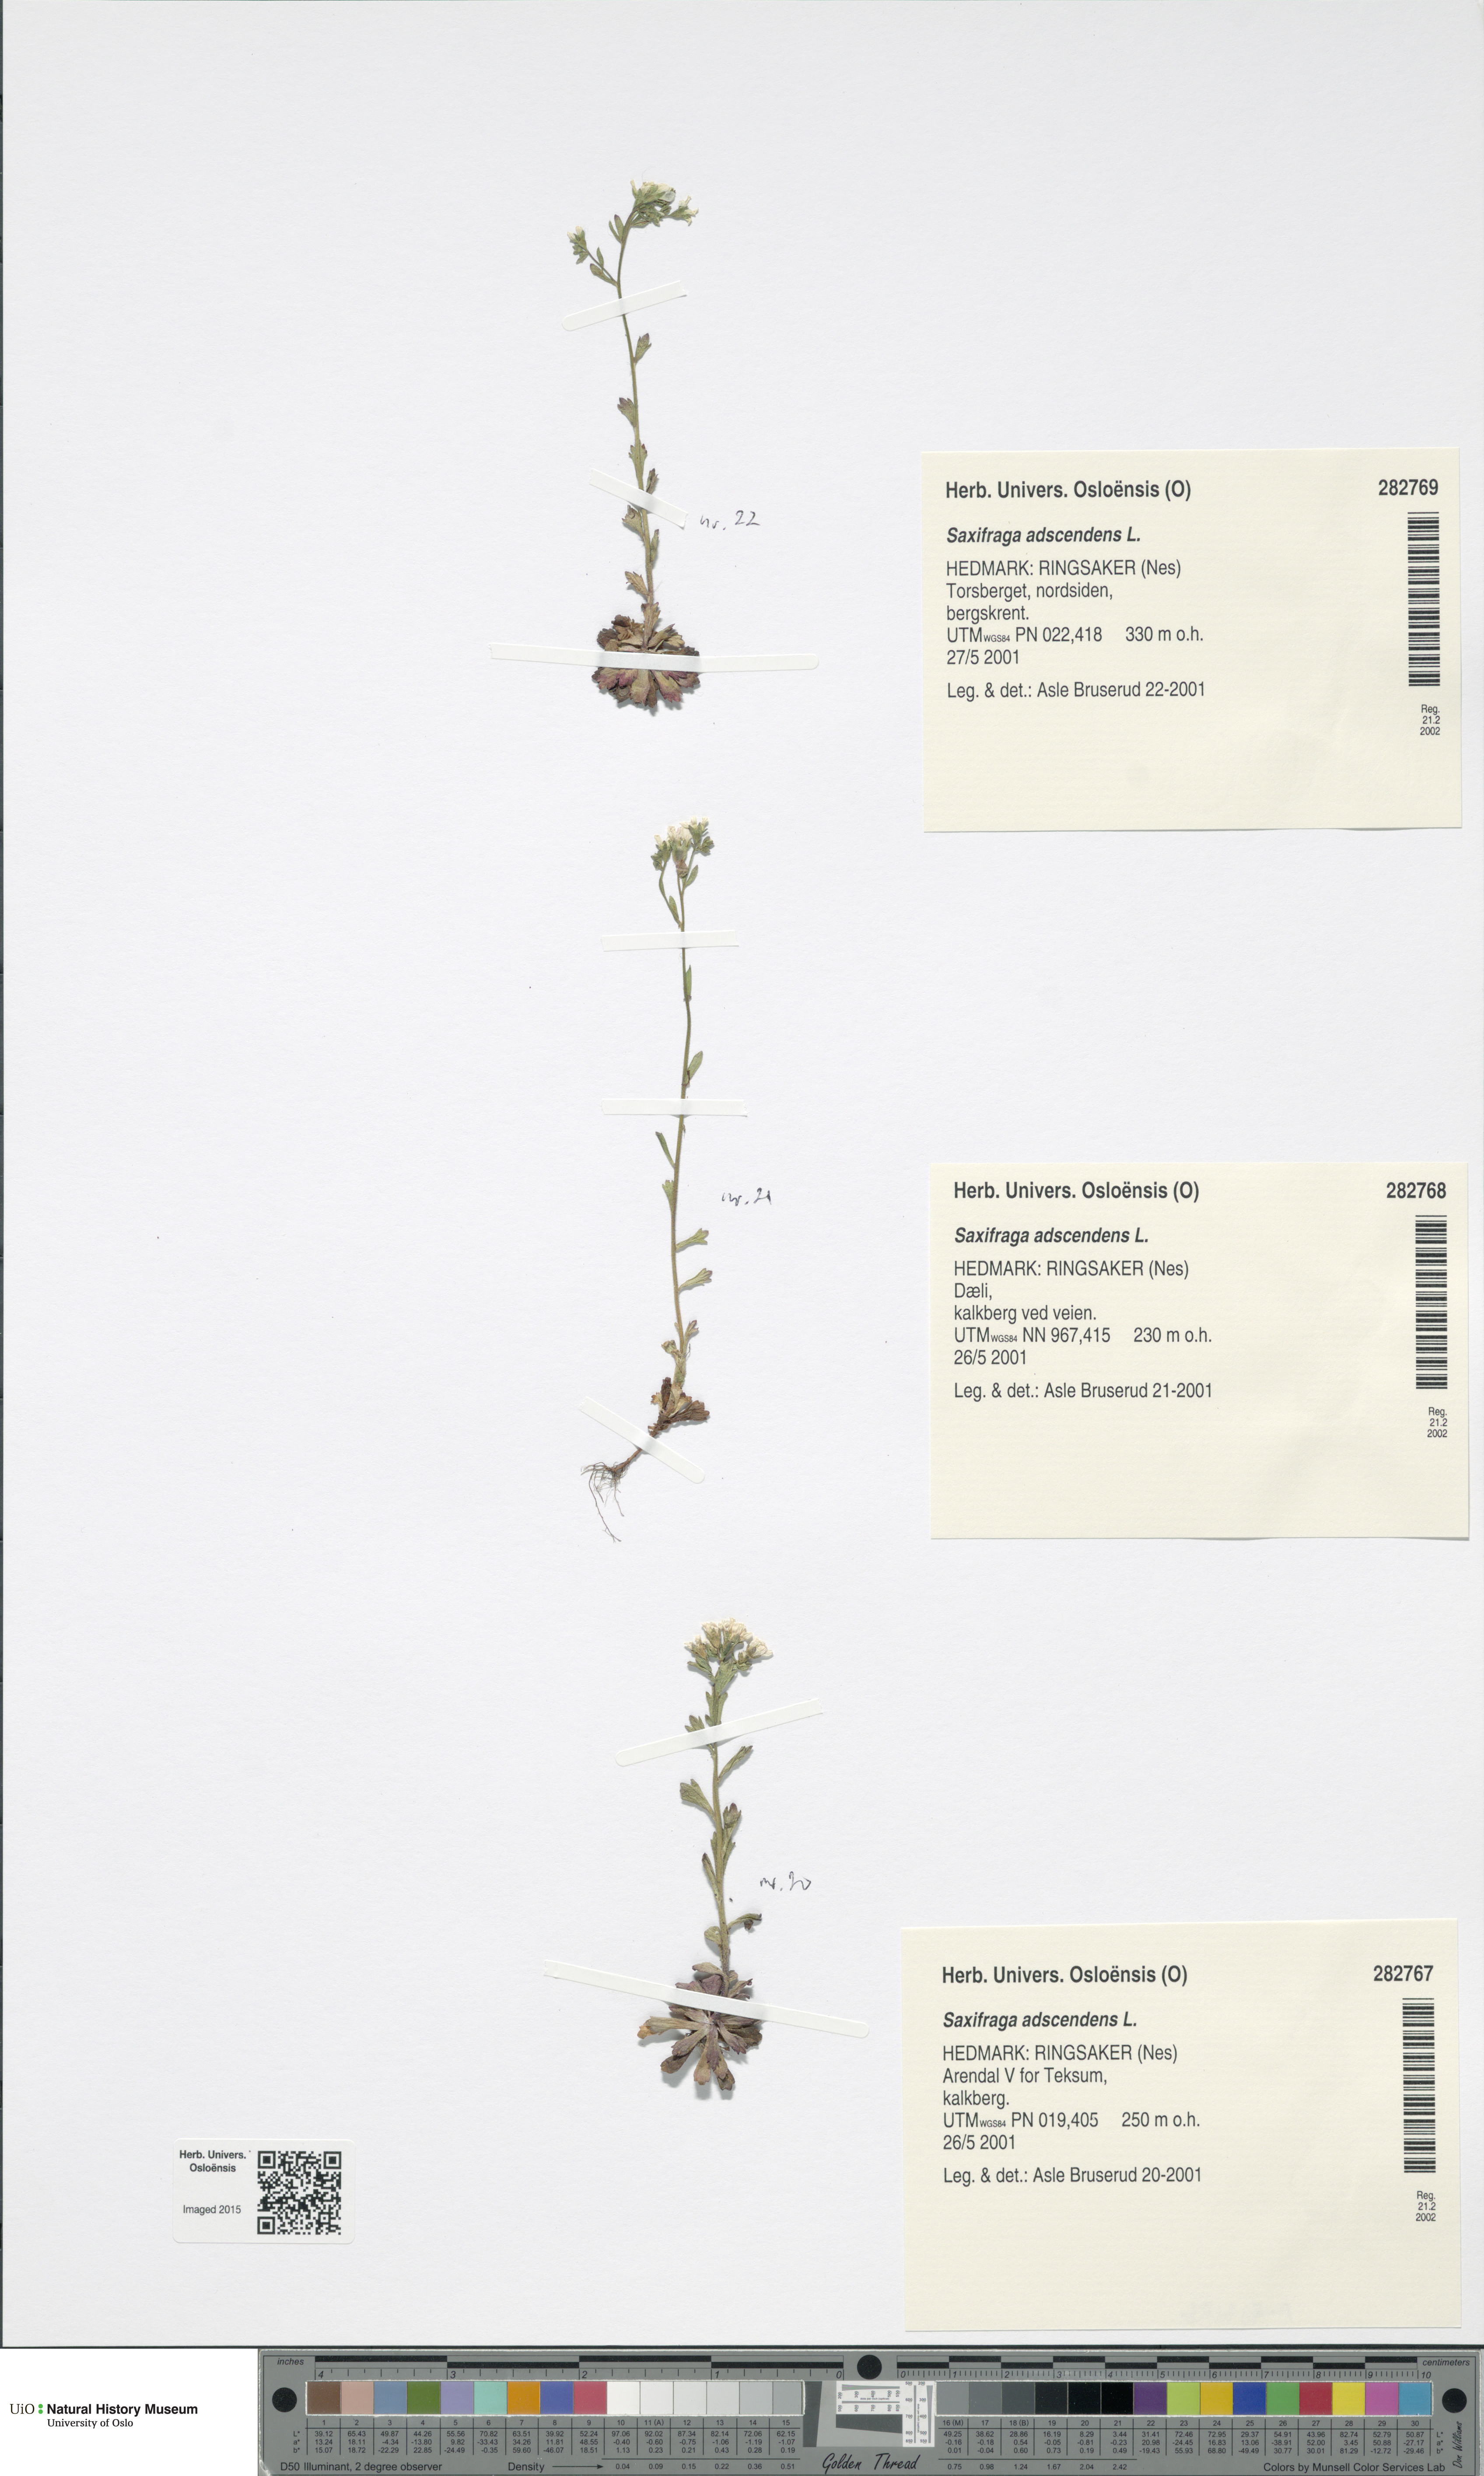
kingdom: Plantae
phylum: Tracheophyta
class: Magnoliopsida
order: Saxifragales
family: Saxifragaceae
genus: Saxifraga
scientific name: Saxifraga adscendens
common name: Ascending saxifrage
